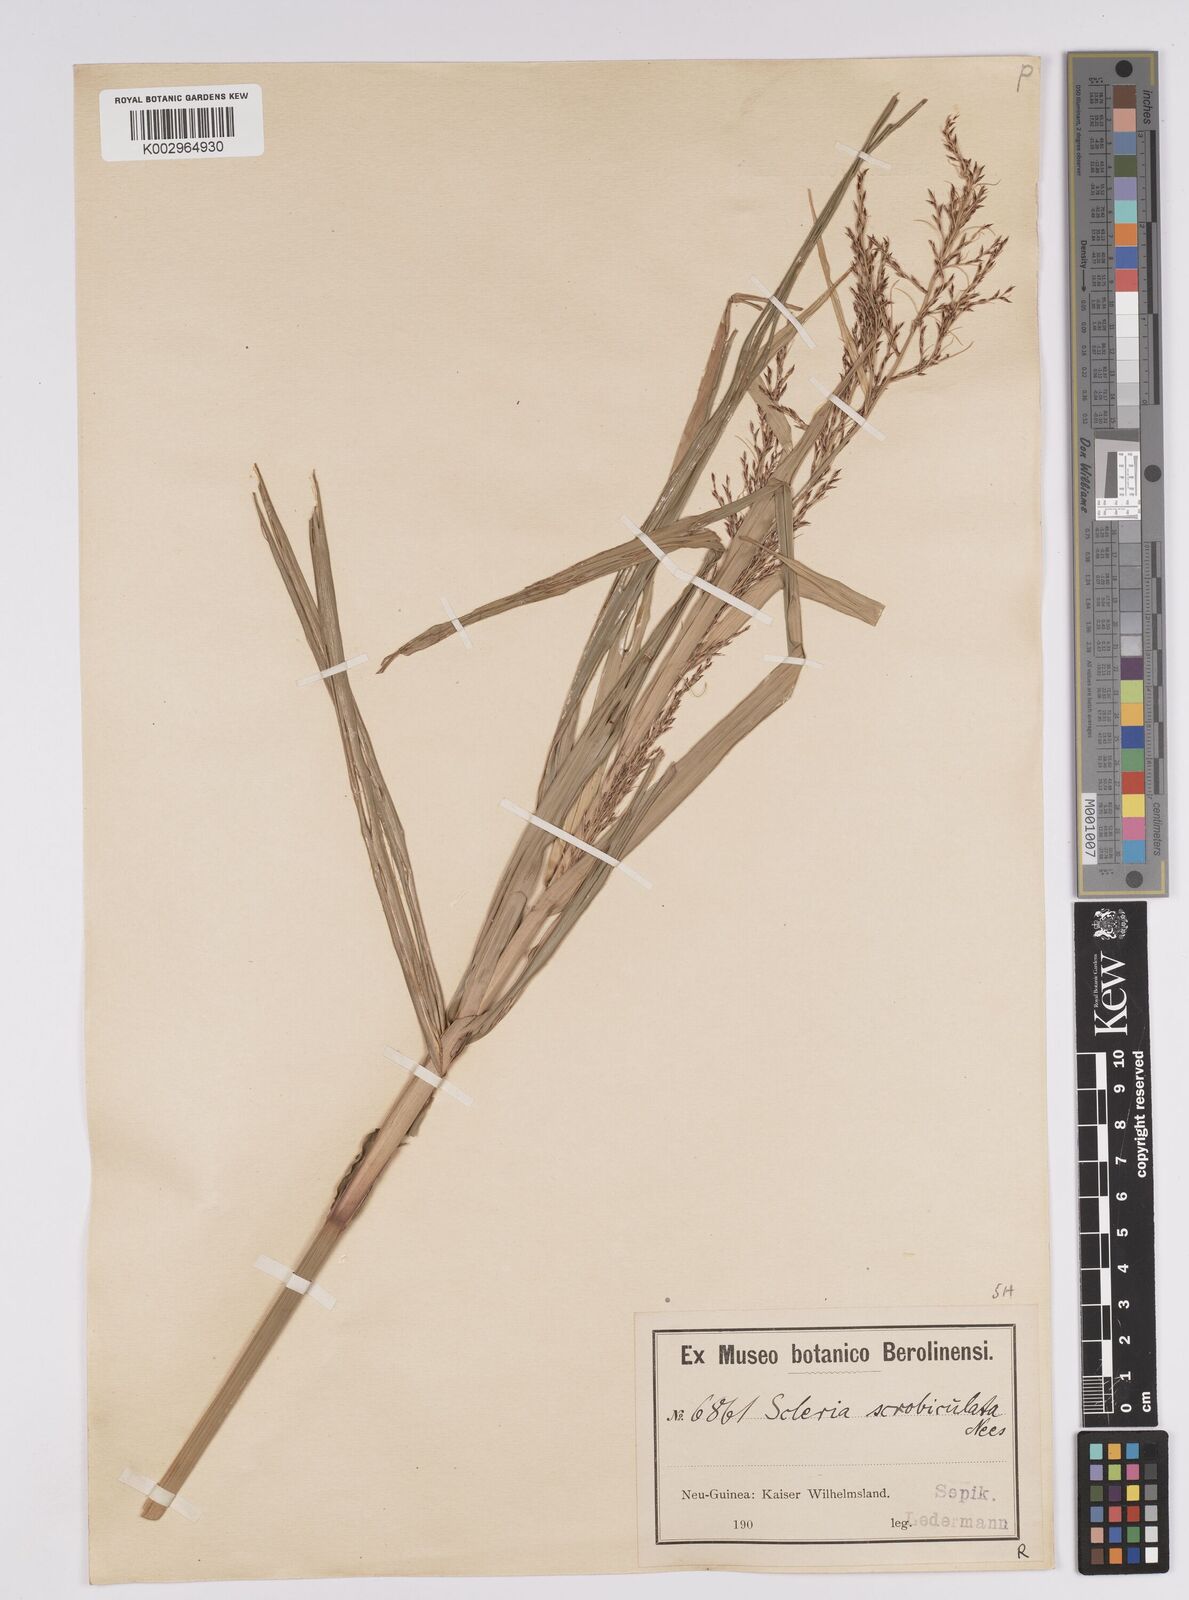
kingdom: Plantae
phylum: Tracheophyta
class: Liliopsida
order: Poales
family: Cyperaceae
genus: Scleria
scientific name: Scleria scrobiculata
